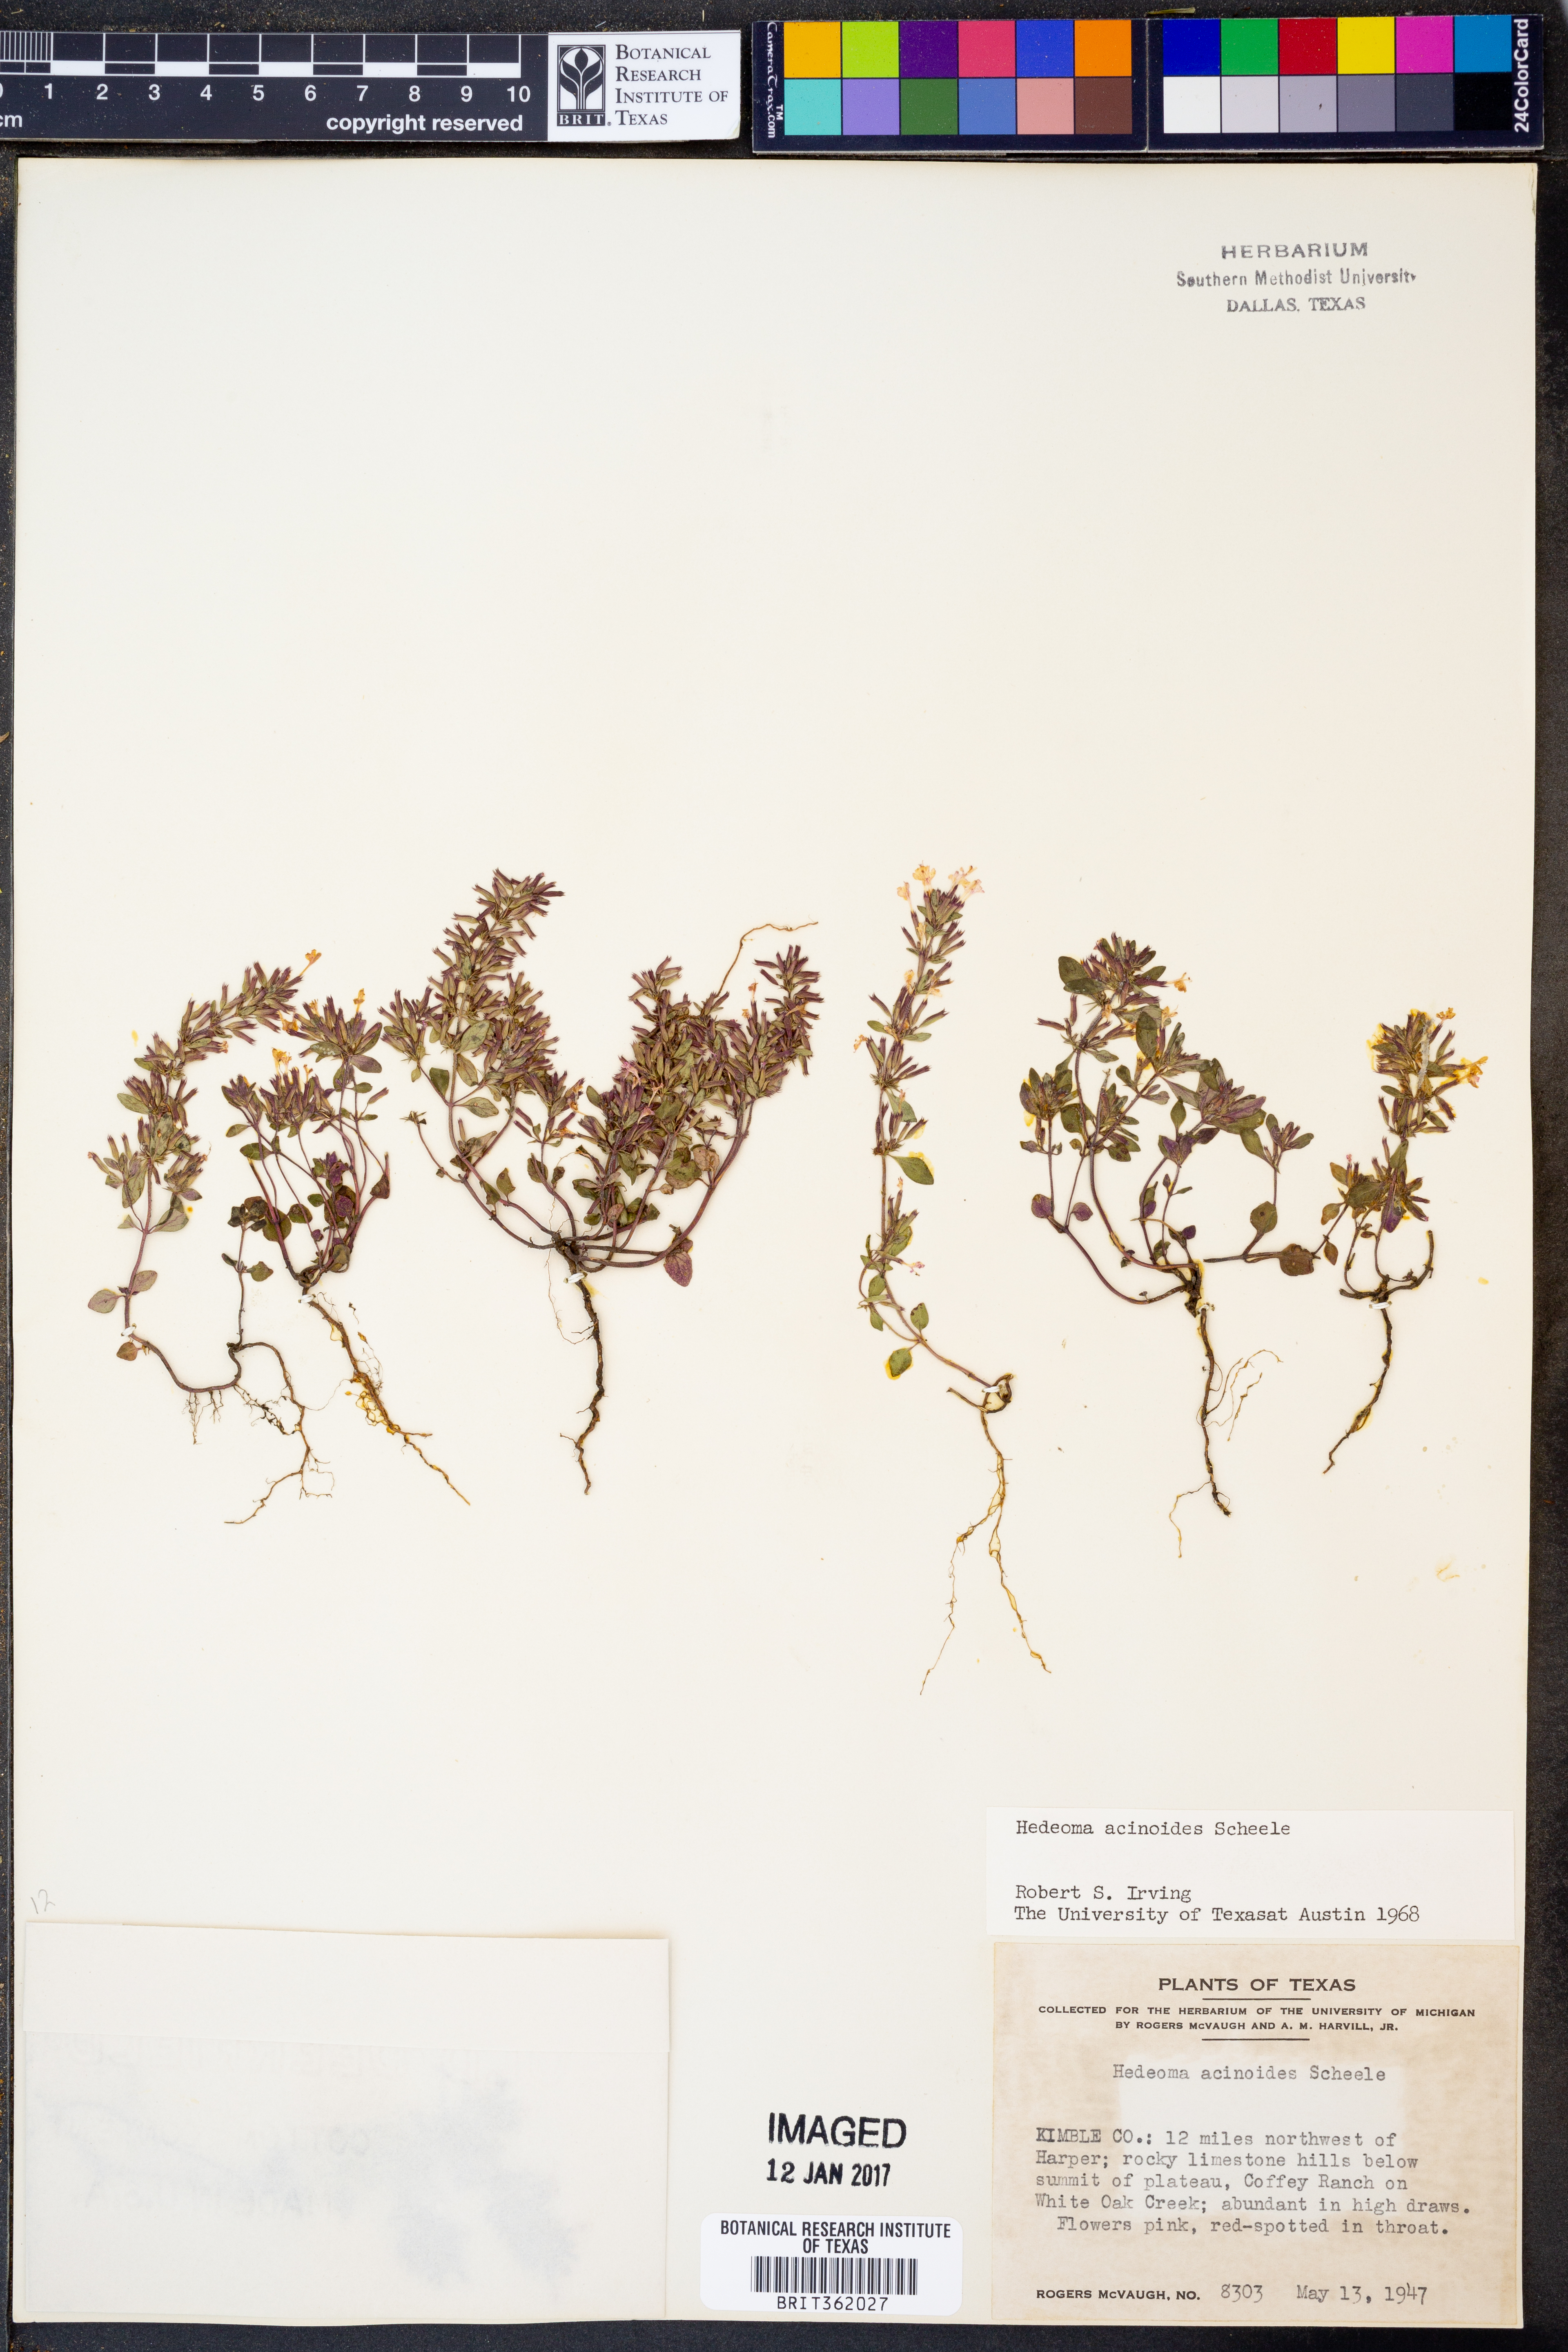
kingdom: Plantae
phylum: Tracheophyta
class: Magnoliopsida
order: Lamiales
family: Lamiaceae
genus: Hedeoma
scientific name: Hedeoma acinoides
